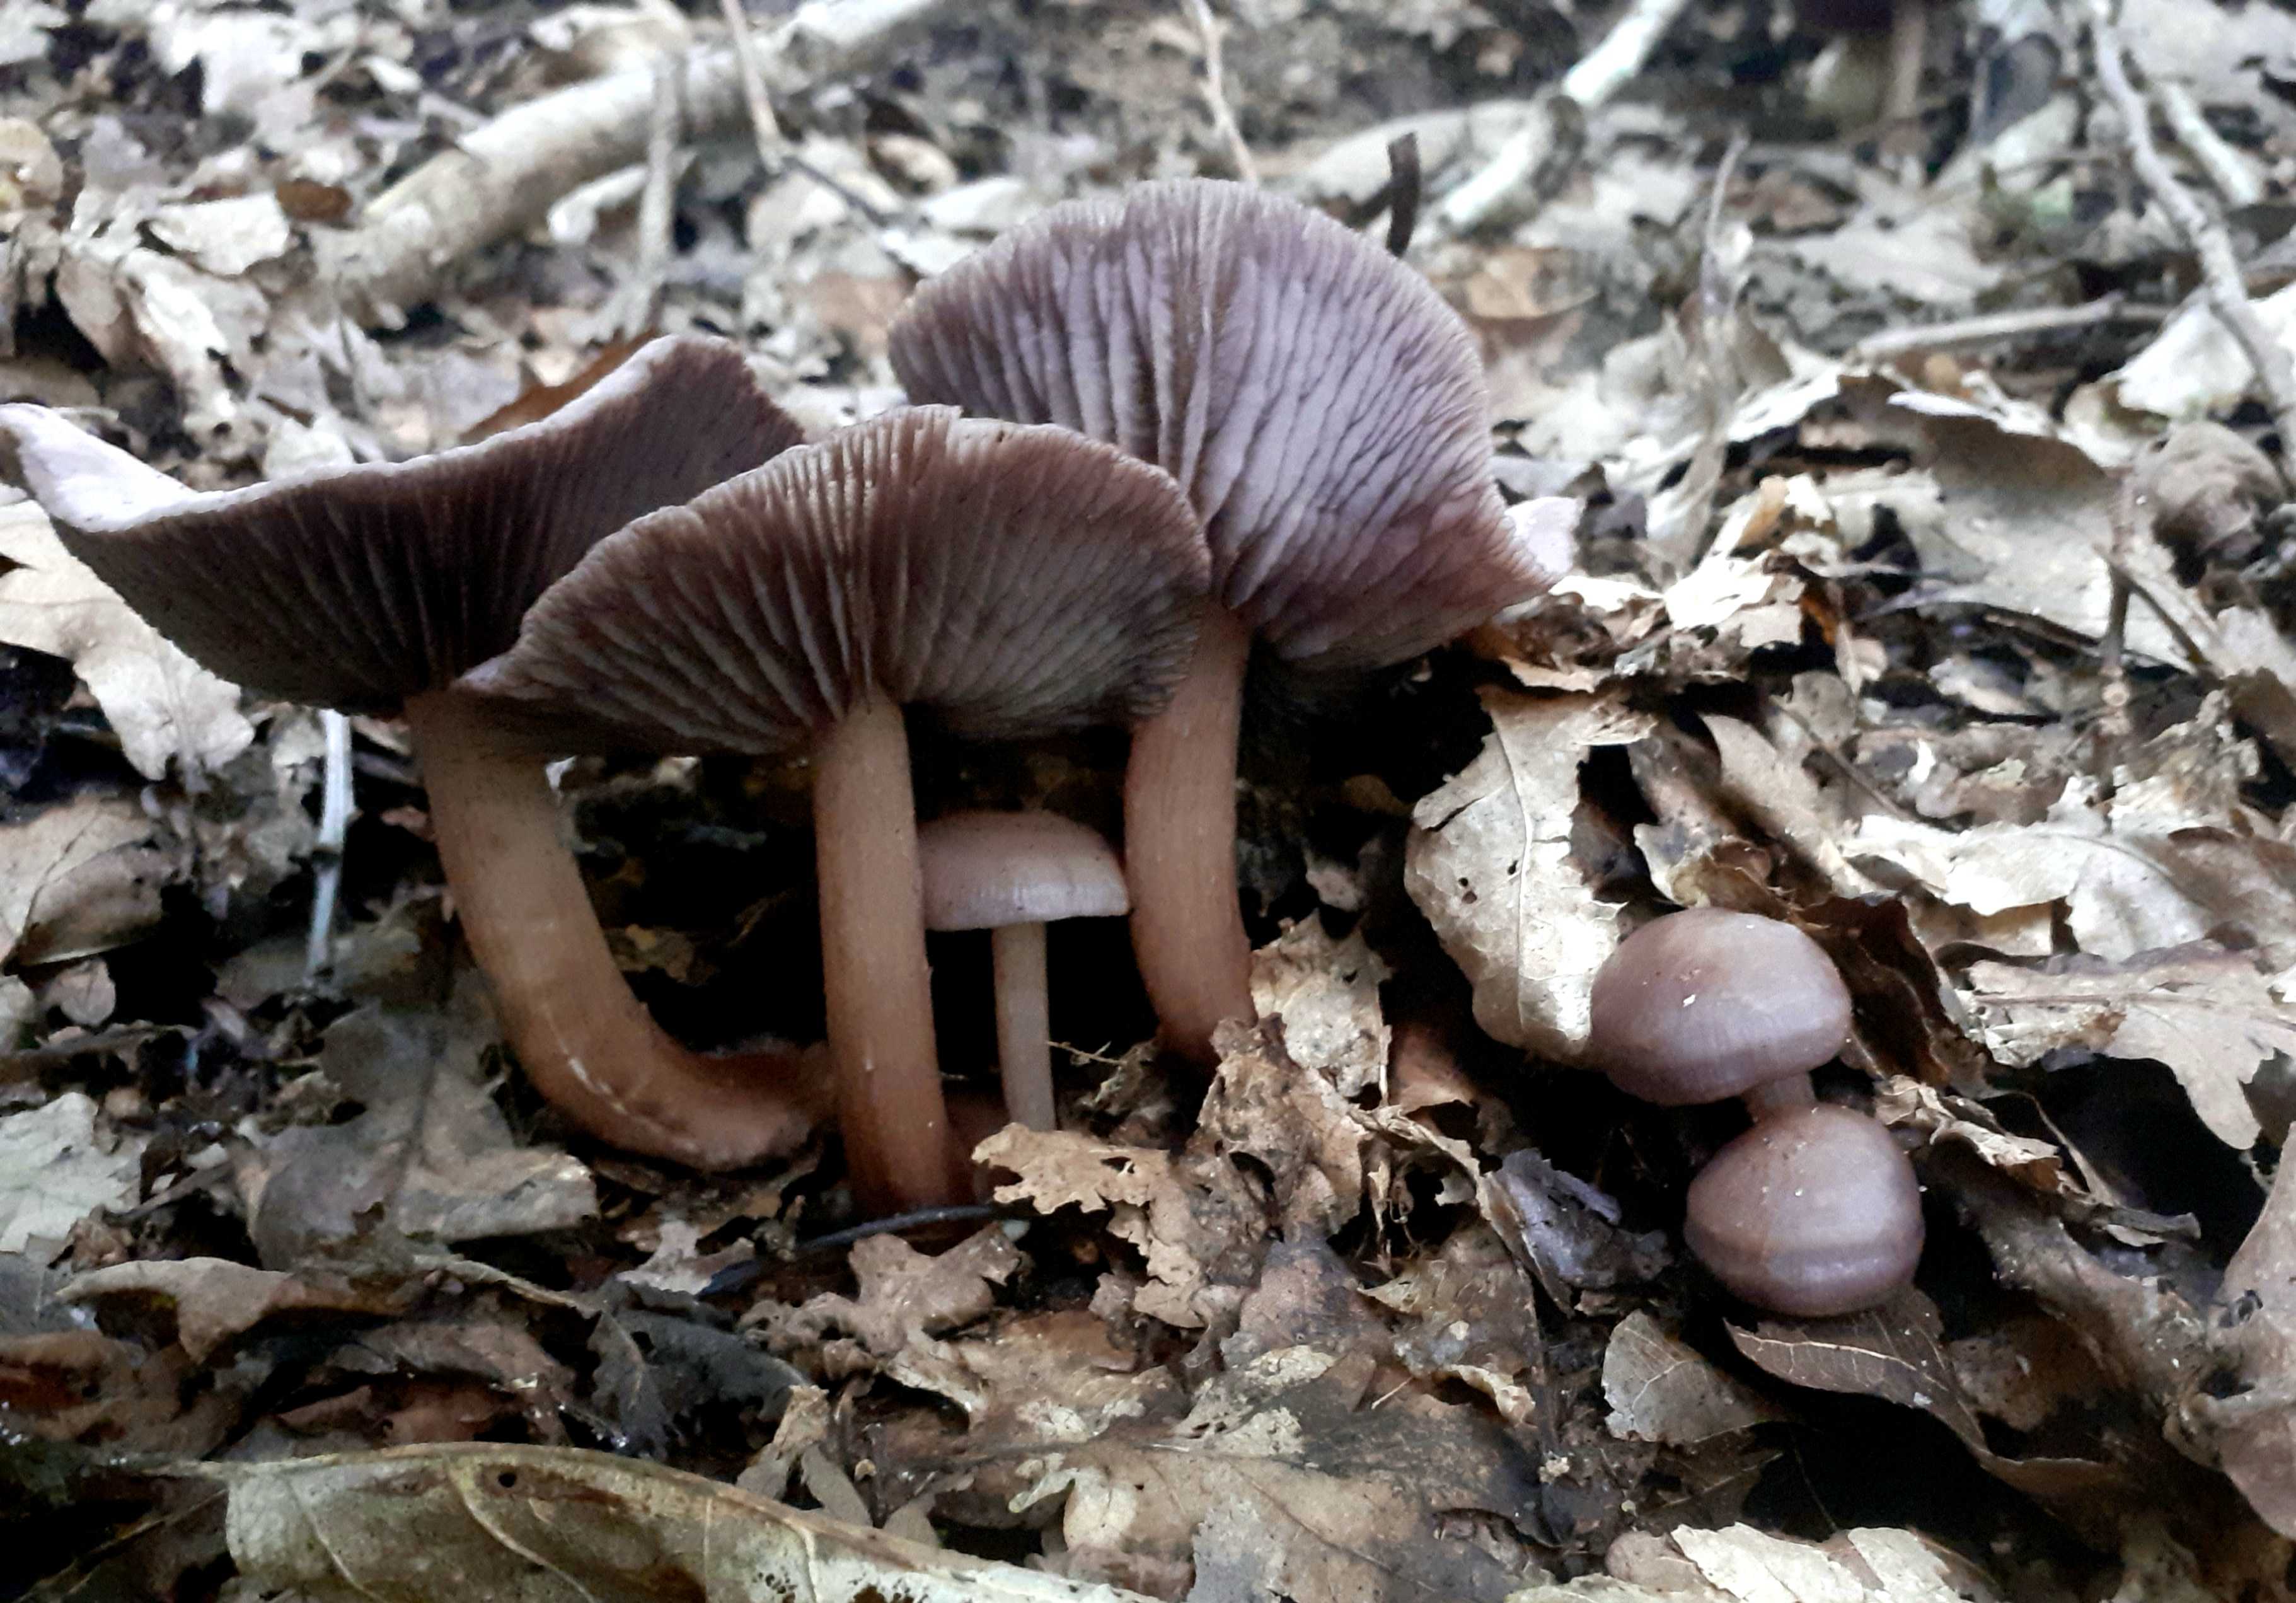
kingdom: Fungi
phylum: Basidiomycota
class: Agaricomycetes
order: Agaricales
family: Mycenaceae
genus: Mycena
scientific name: Mycena pelianthina
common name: mørkbladet huesvamp
